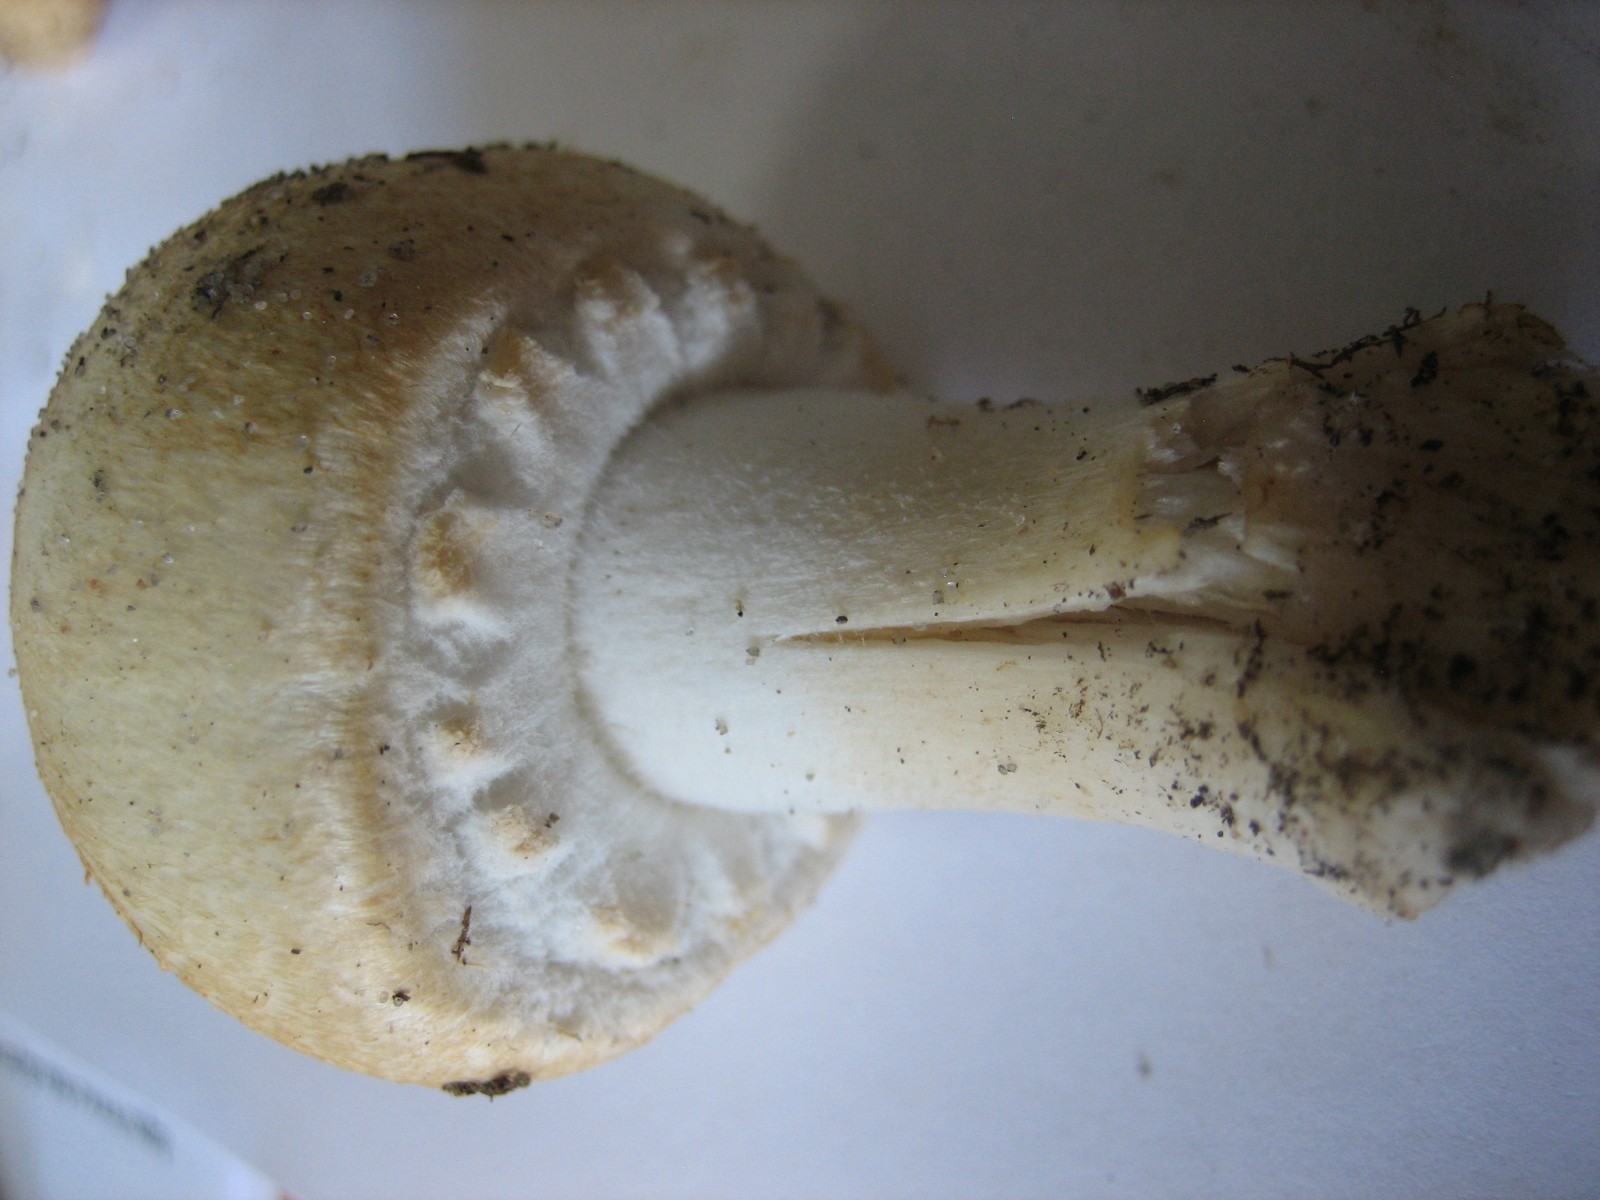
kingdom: Fungi
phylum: Basidiomycota
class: Agaricomycetes
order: Agaricales
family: Agaricaceae
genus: Agaricus
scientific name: Agaricus
